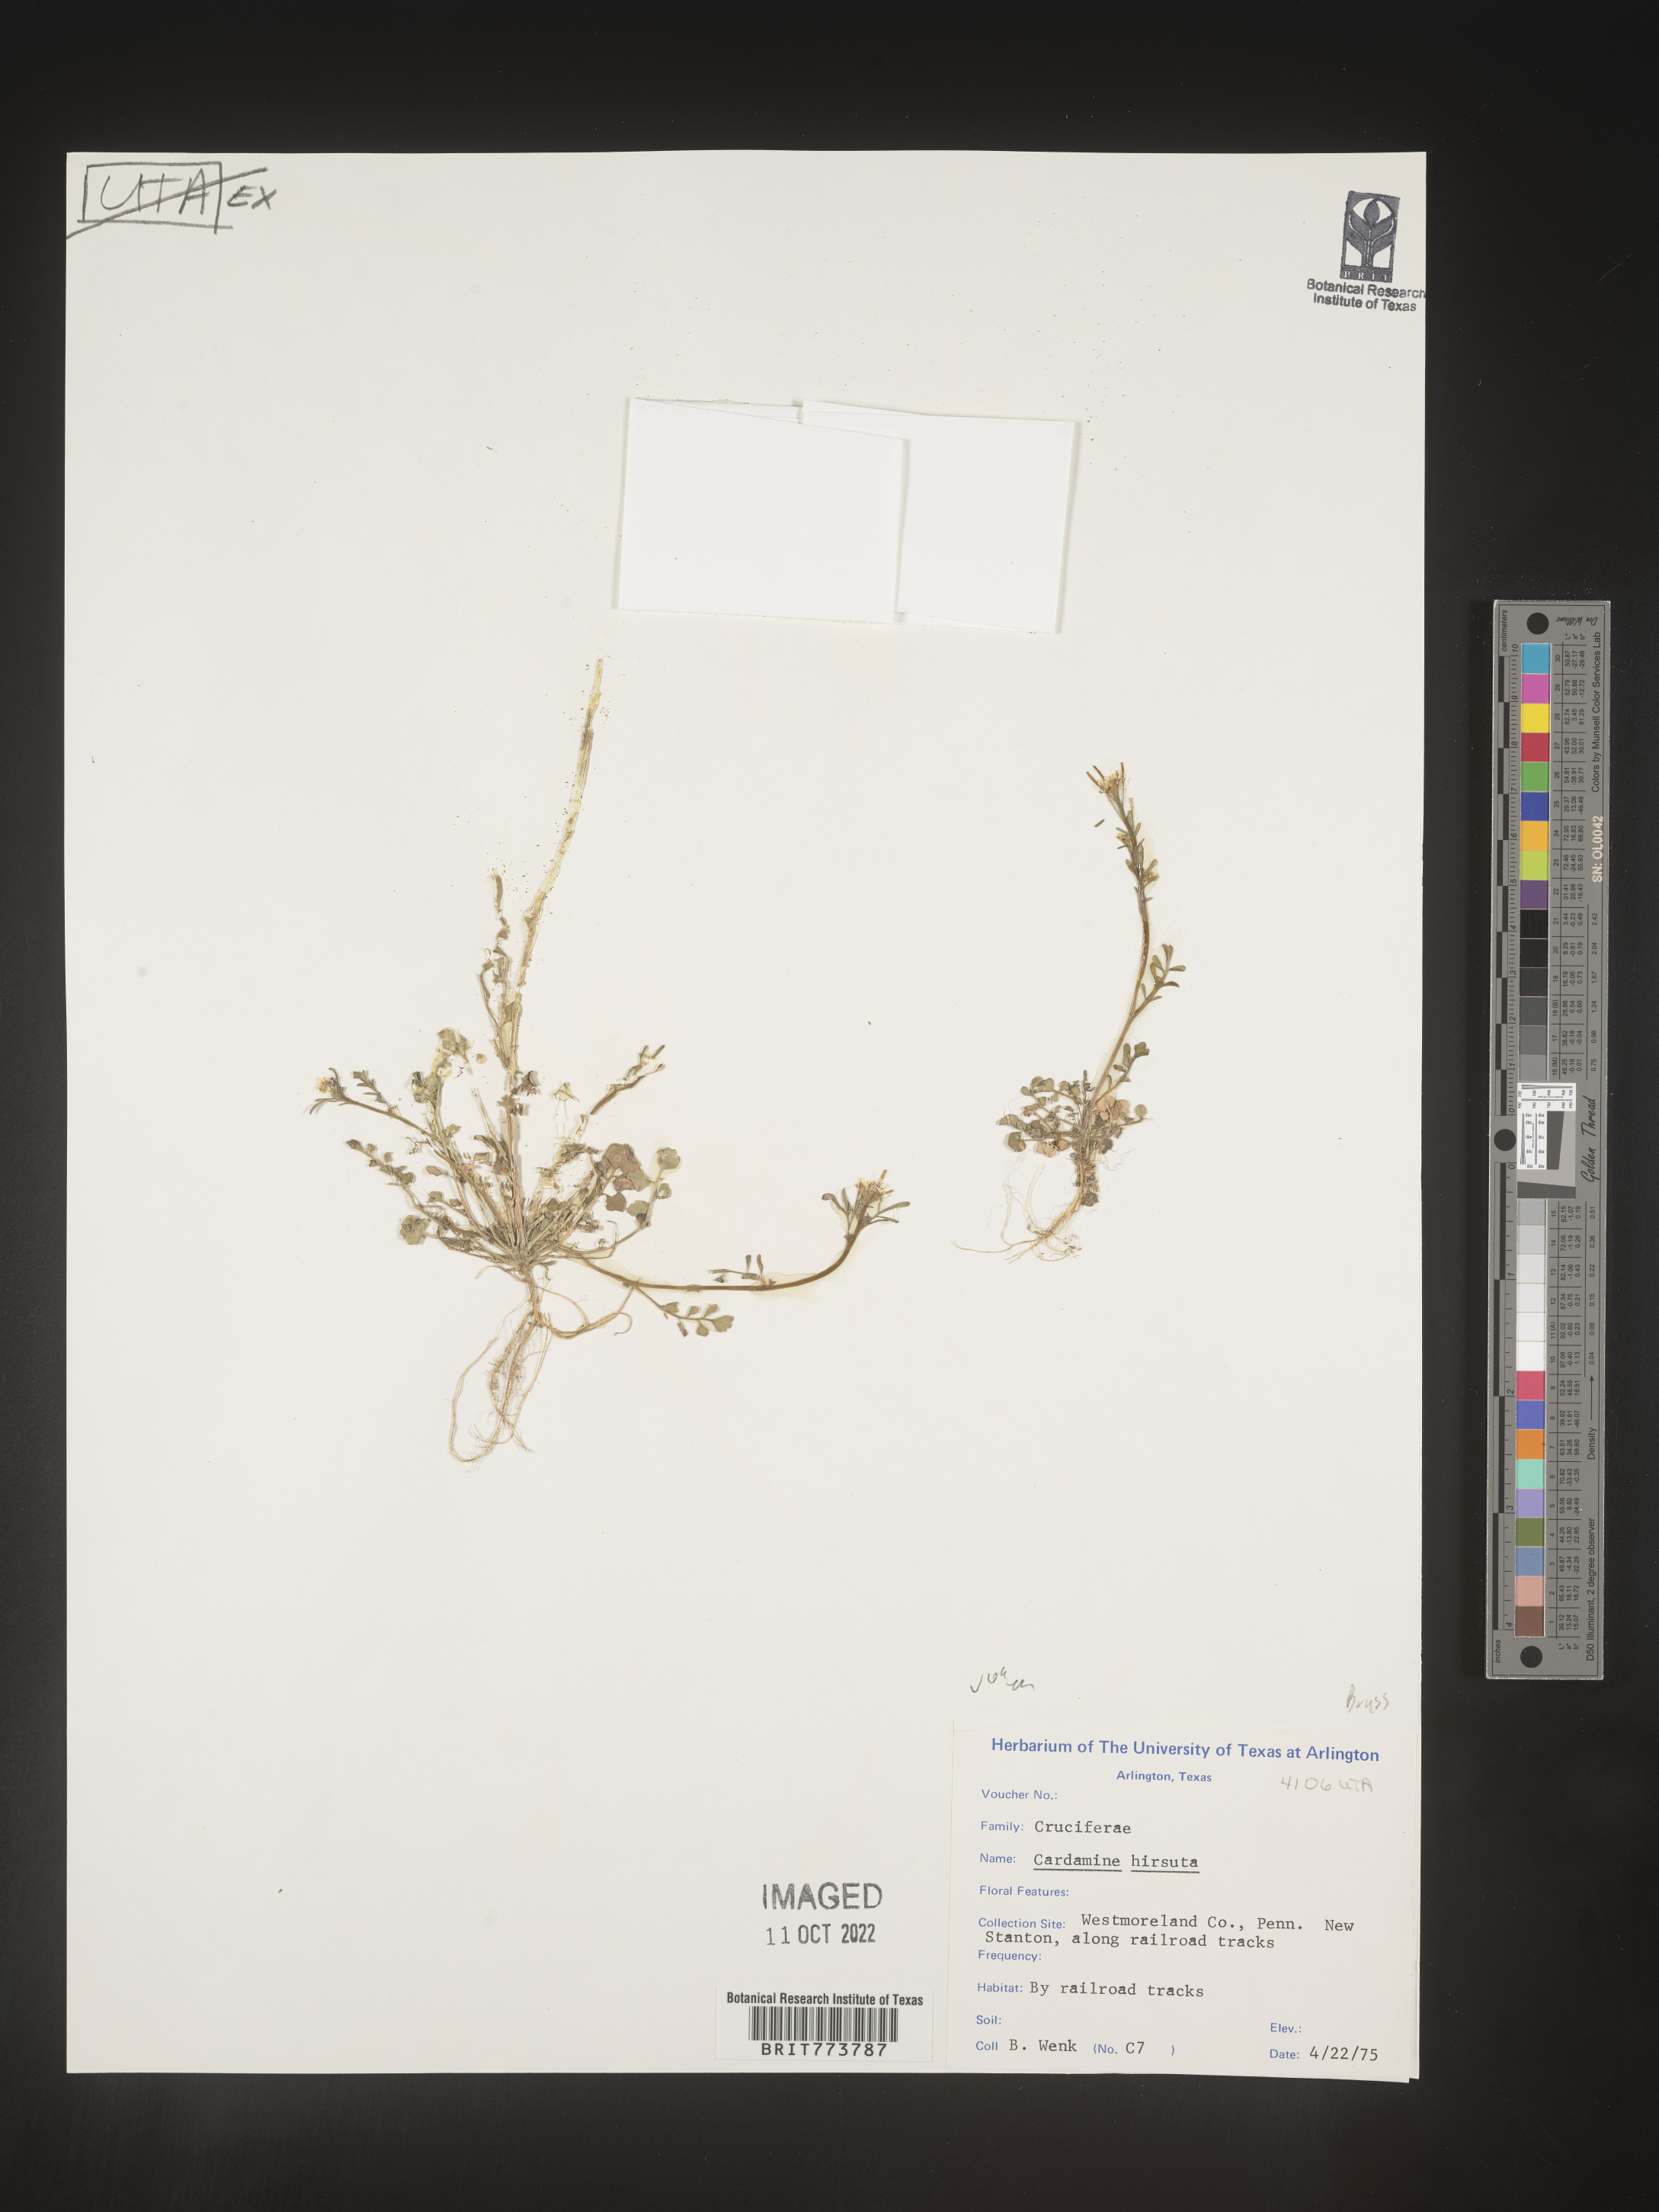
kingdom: Plantae
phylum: Tracheophyta
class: Magnoliopsida
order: Brassicales
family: Brassicaceae
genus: Cardamine
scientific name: Cardamine hirsuta
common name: Hairy bittercress
